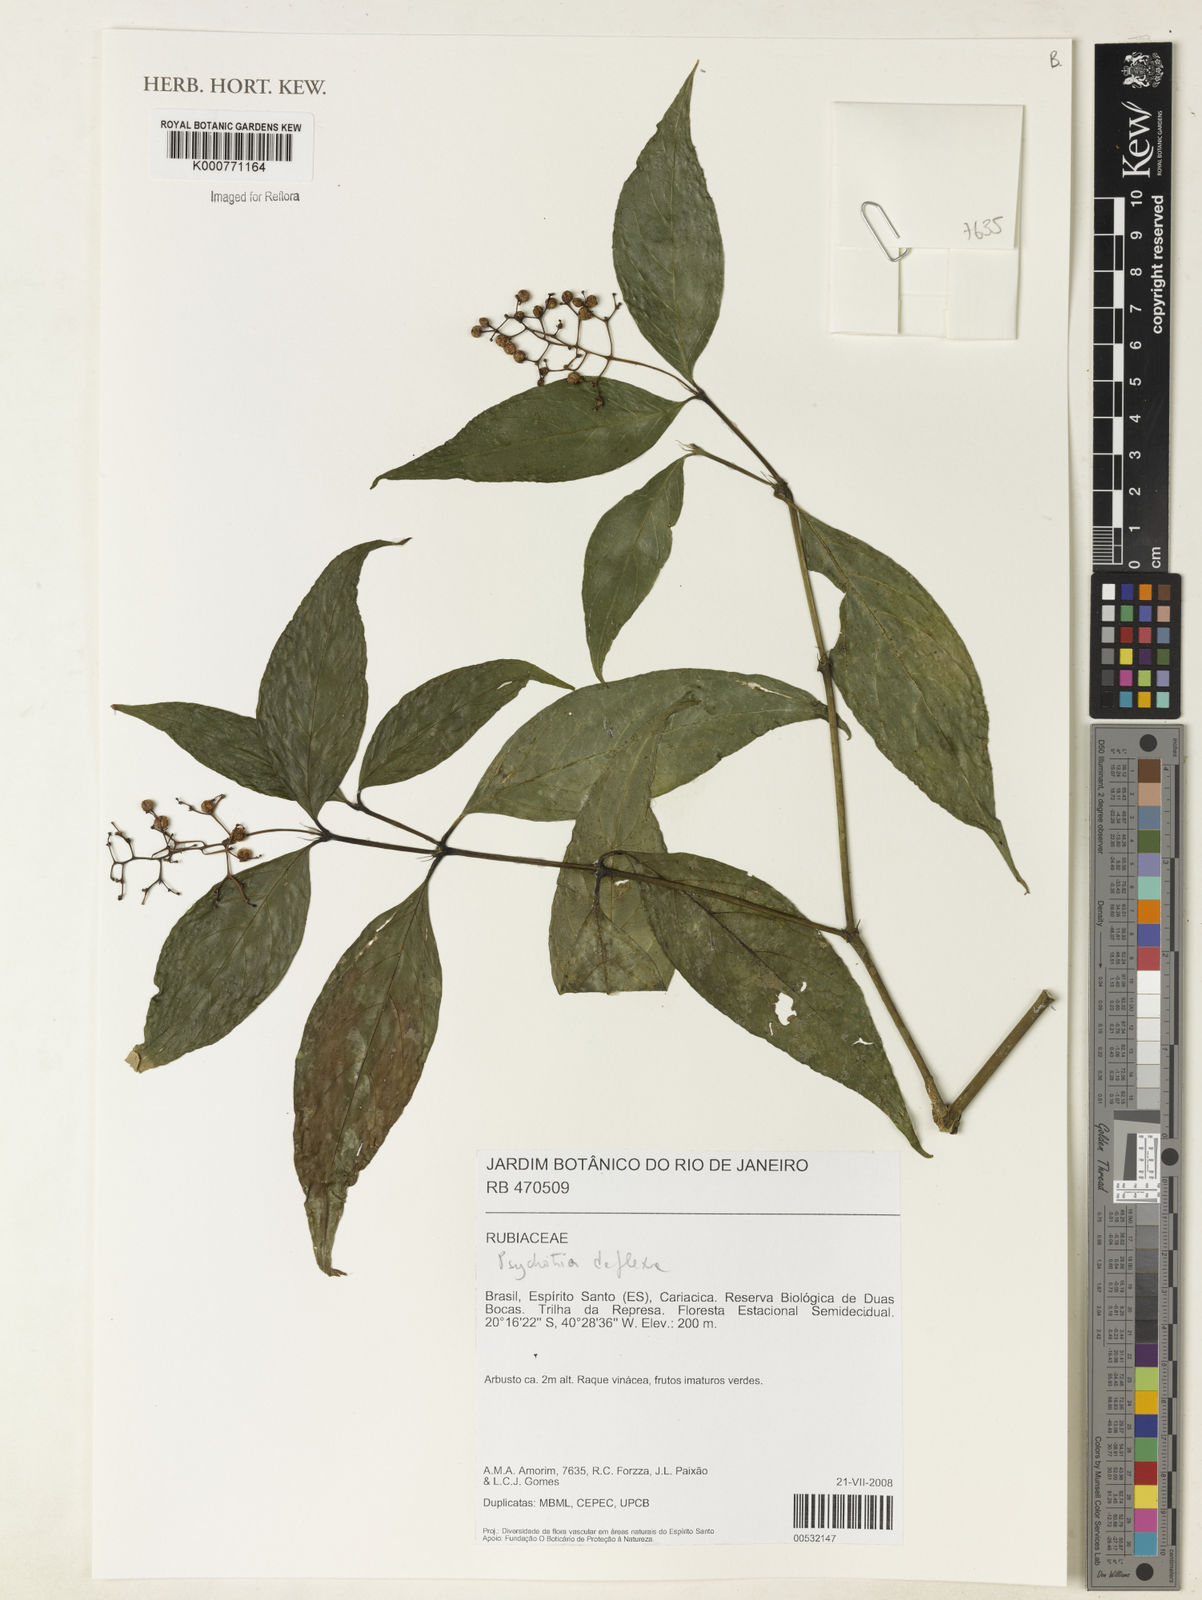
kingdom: Plantae
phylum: Tracheophyta
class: Magnoliopsida
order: Gentianales
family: Rubiaceae
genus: Palicourea
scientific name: Palicourea deflexa
